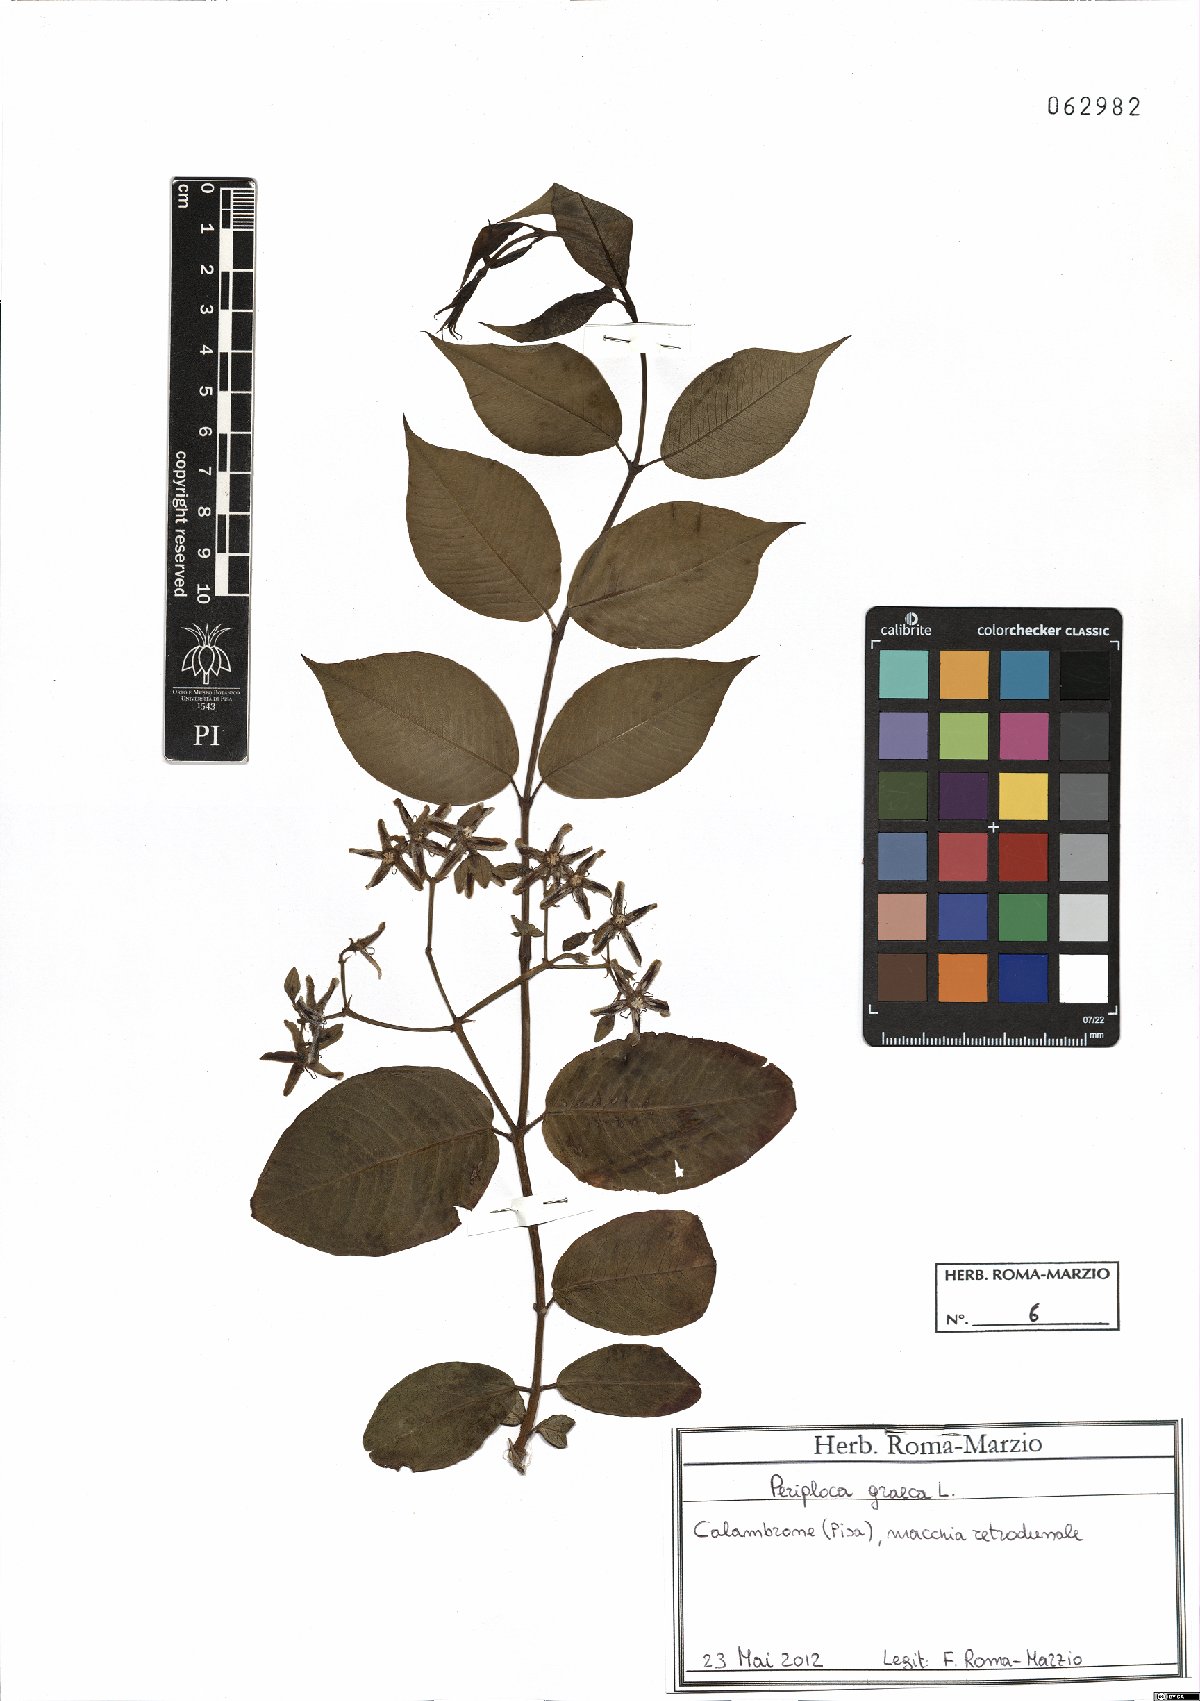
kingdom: Plantae
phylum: Tracheophyta
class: Magnoliopsida
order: Gentianales
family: Apocynaceae
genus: Periploca
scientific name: Periploca graeca
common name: Silkvine
